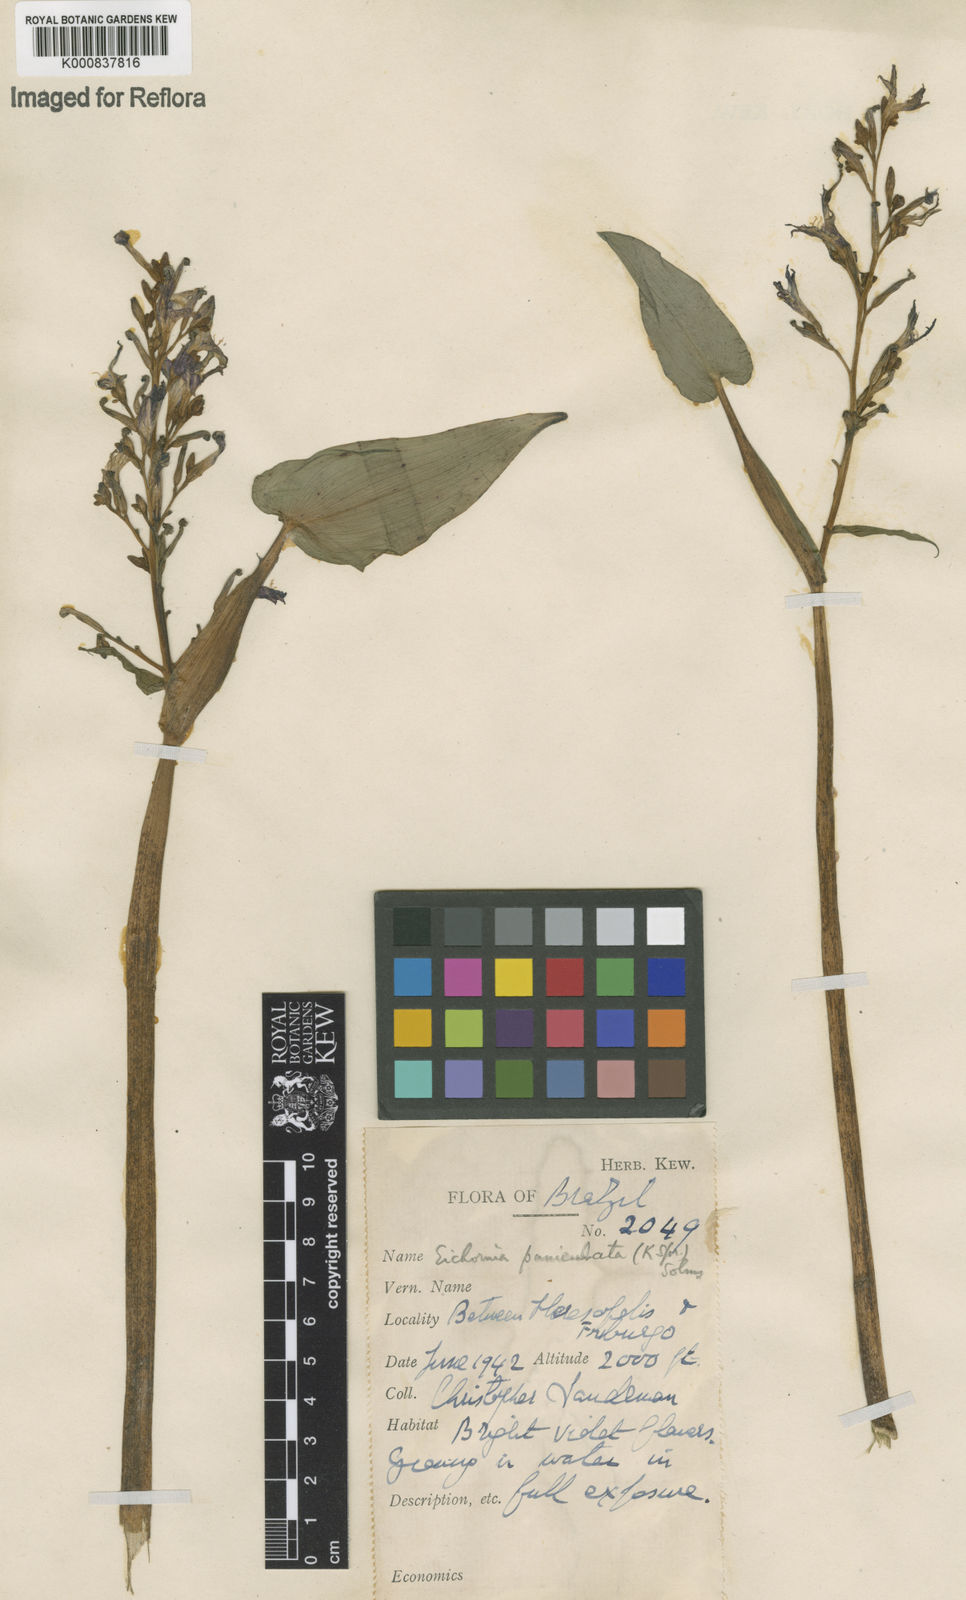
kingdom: Plantae
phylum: Tracheophyta
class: Liliopsida
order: Commelinales
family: Pontederiaceae
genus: Pontederia
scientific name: Pontederia paniculata
